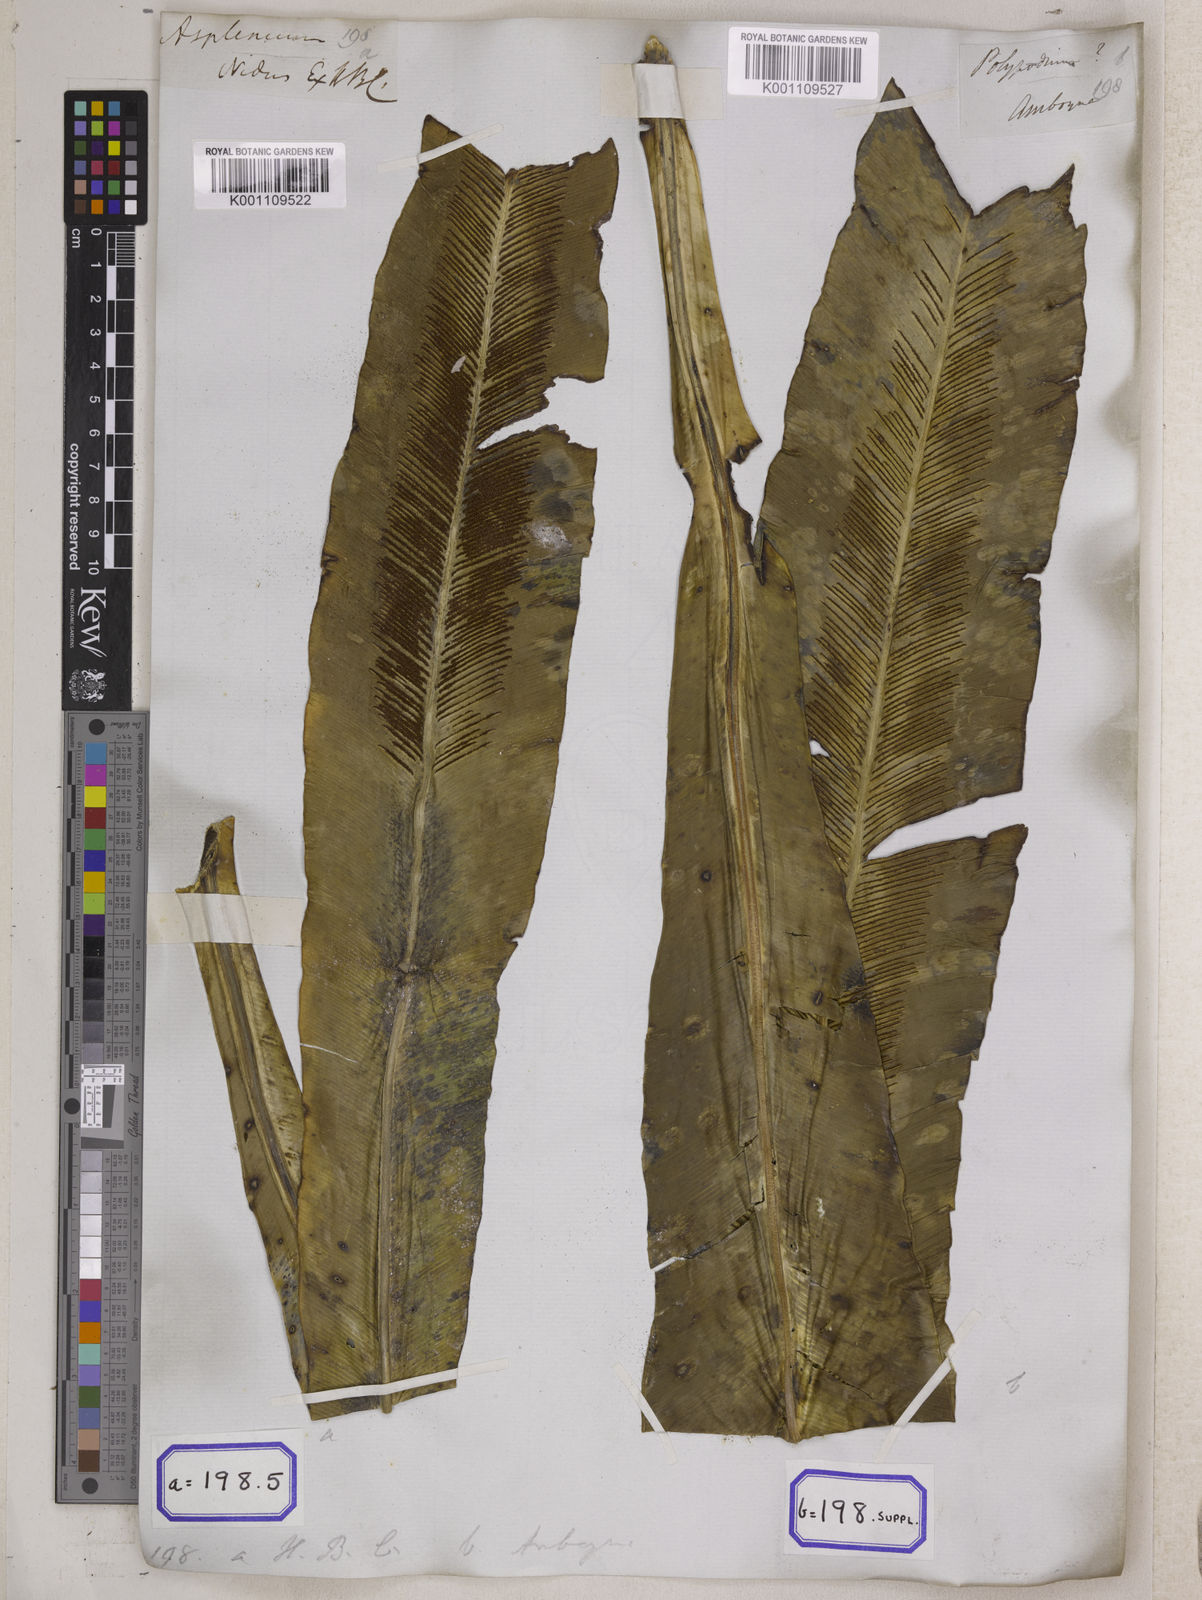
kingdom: Plantae
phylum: Tracheophyta
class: Polypodiopsida
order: Polypodiales
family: Aspleniaceae
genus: Asplenium
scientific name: Asplenium nidus
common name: Bird's-nest fern
